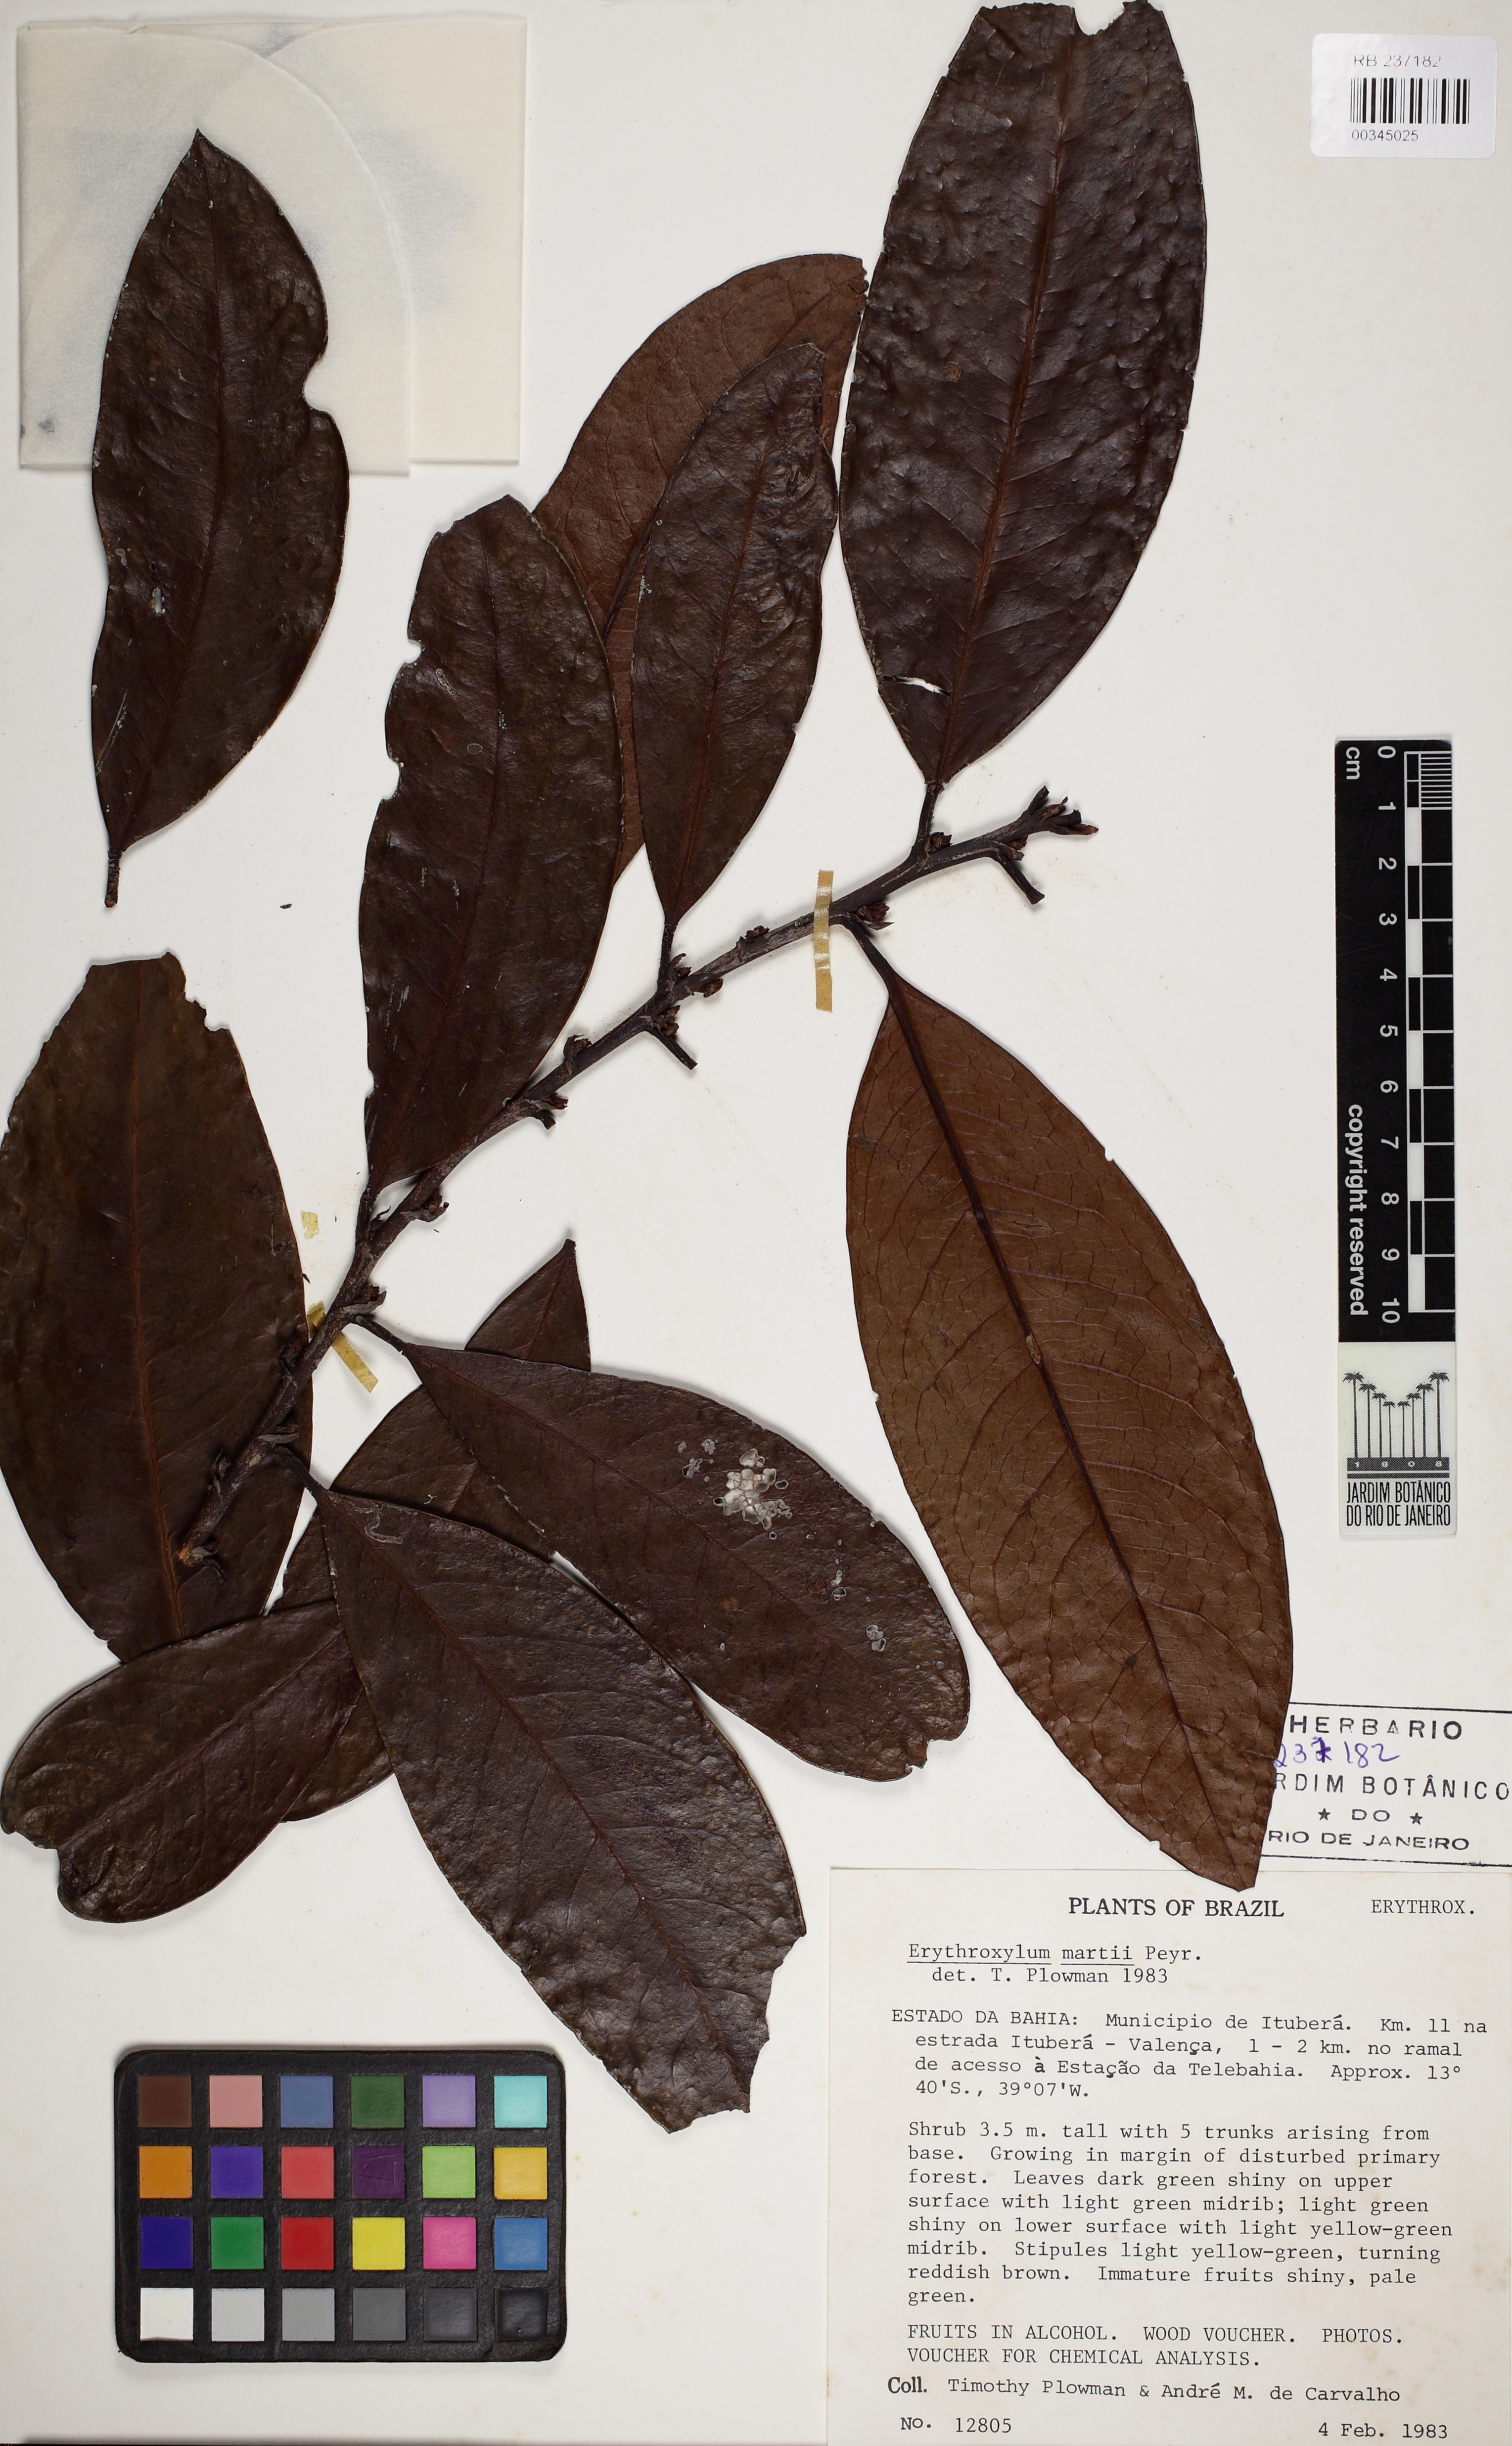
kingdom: Plantae
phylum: Tracheophyta
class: Magnoliopsida
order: Malpighiales
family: Erythroxylaceae
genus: Erythroxylum
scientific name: Erythroxylum martii
